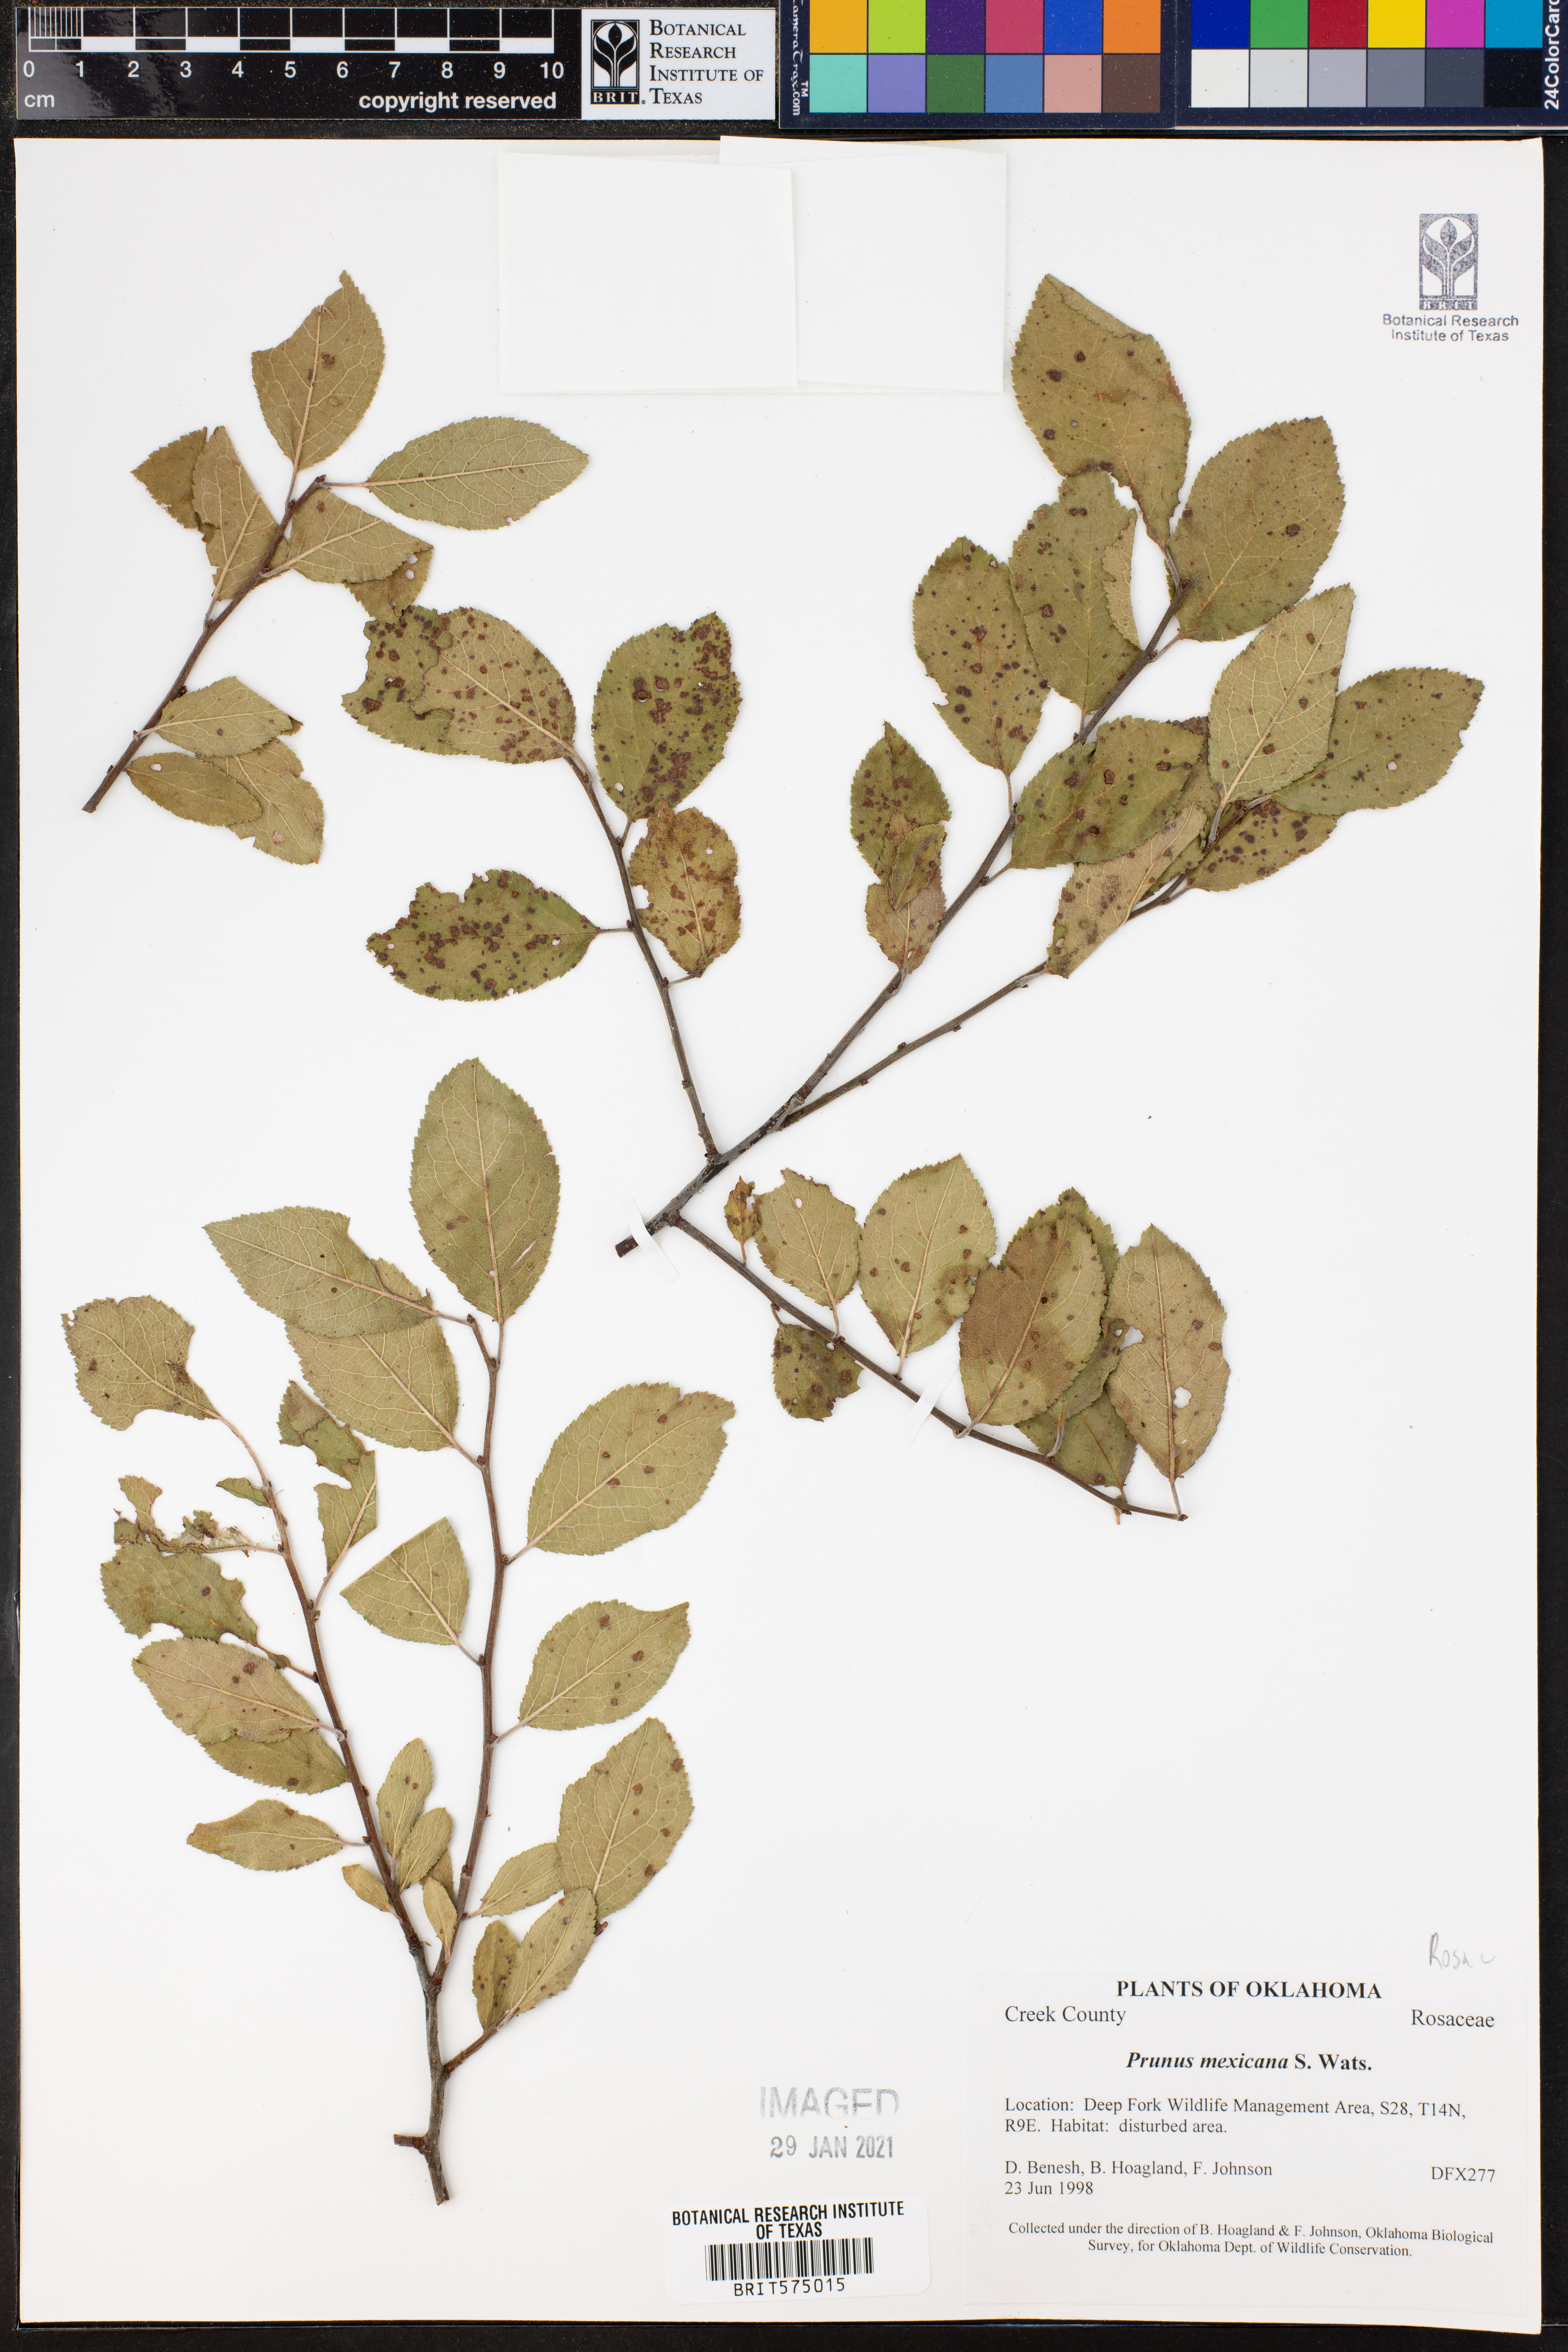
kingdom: Plantae
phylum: Tracheophyta
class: Magnoliopsida
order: Rosales
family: Rosaceae
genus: Prunus
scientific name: Prunus mexicana
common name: Mexican plum
